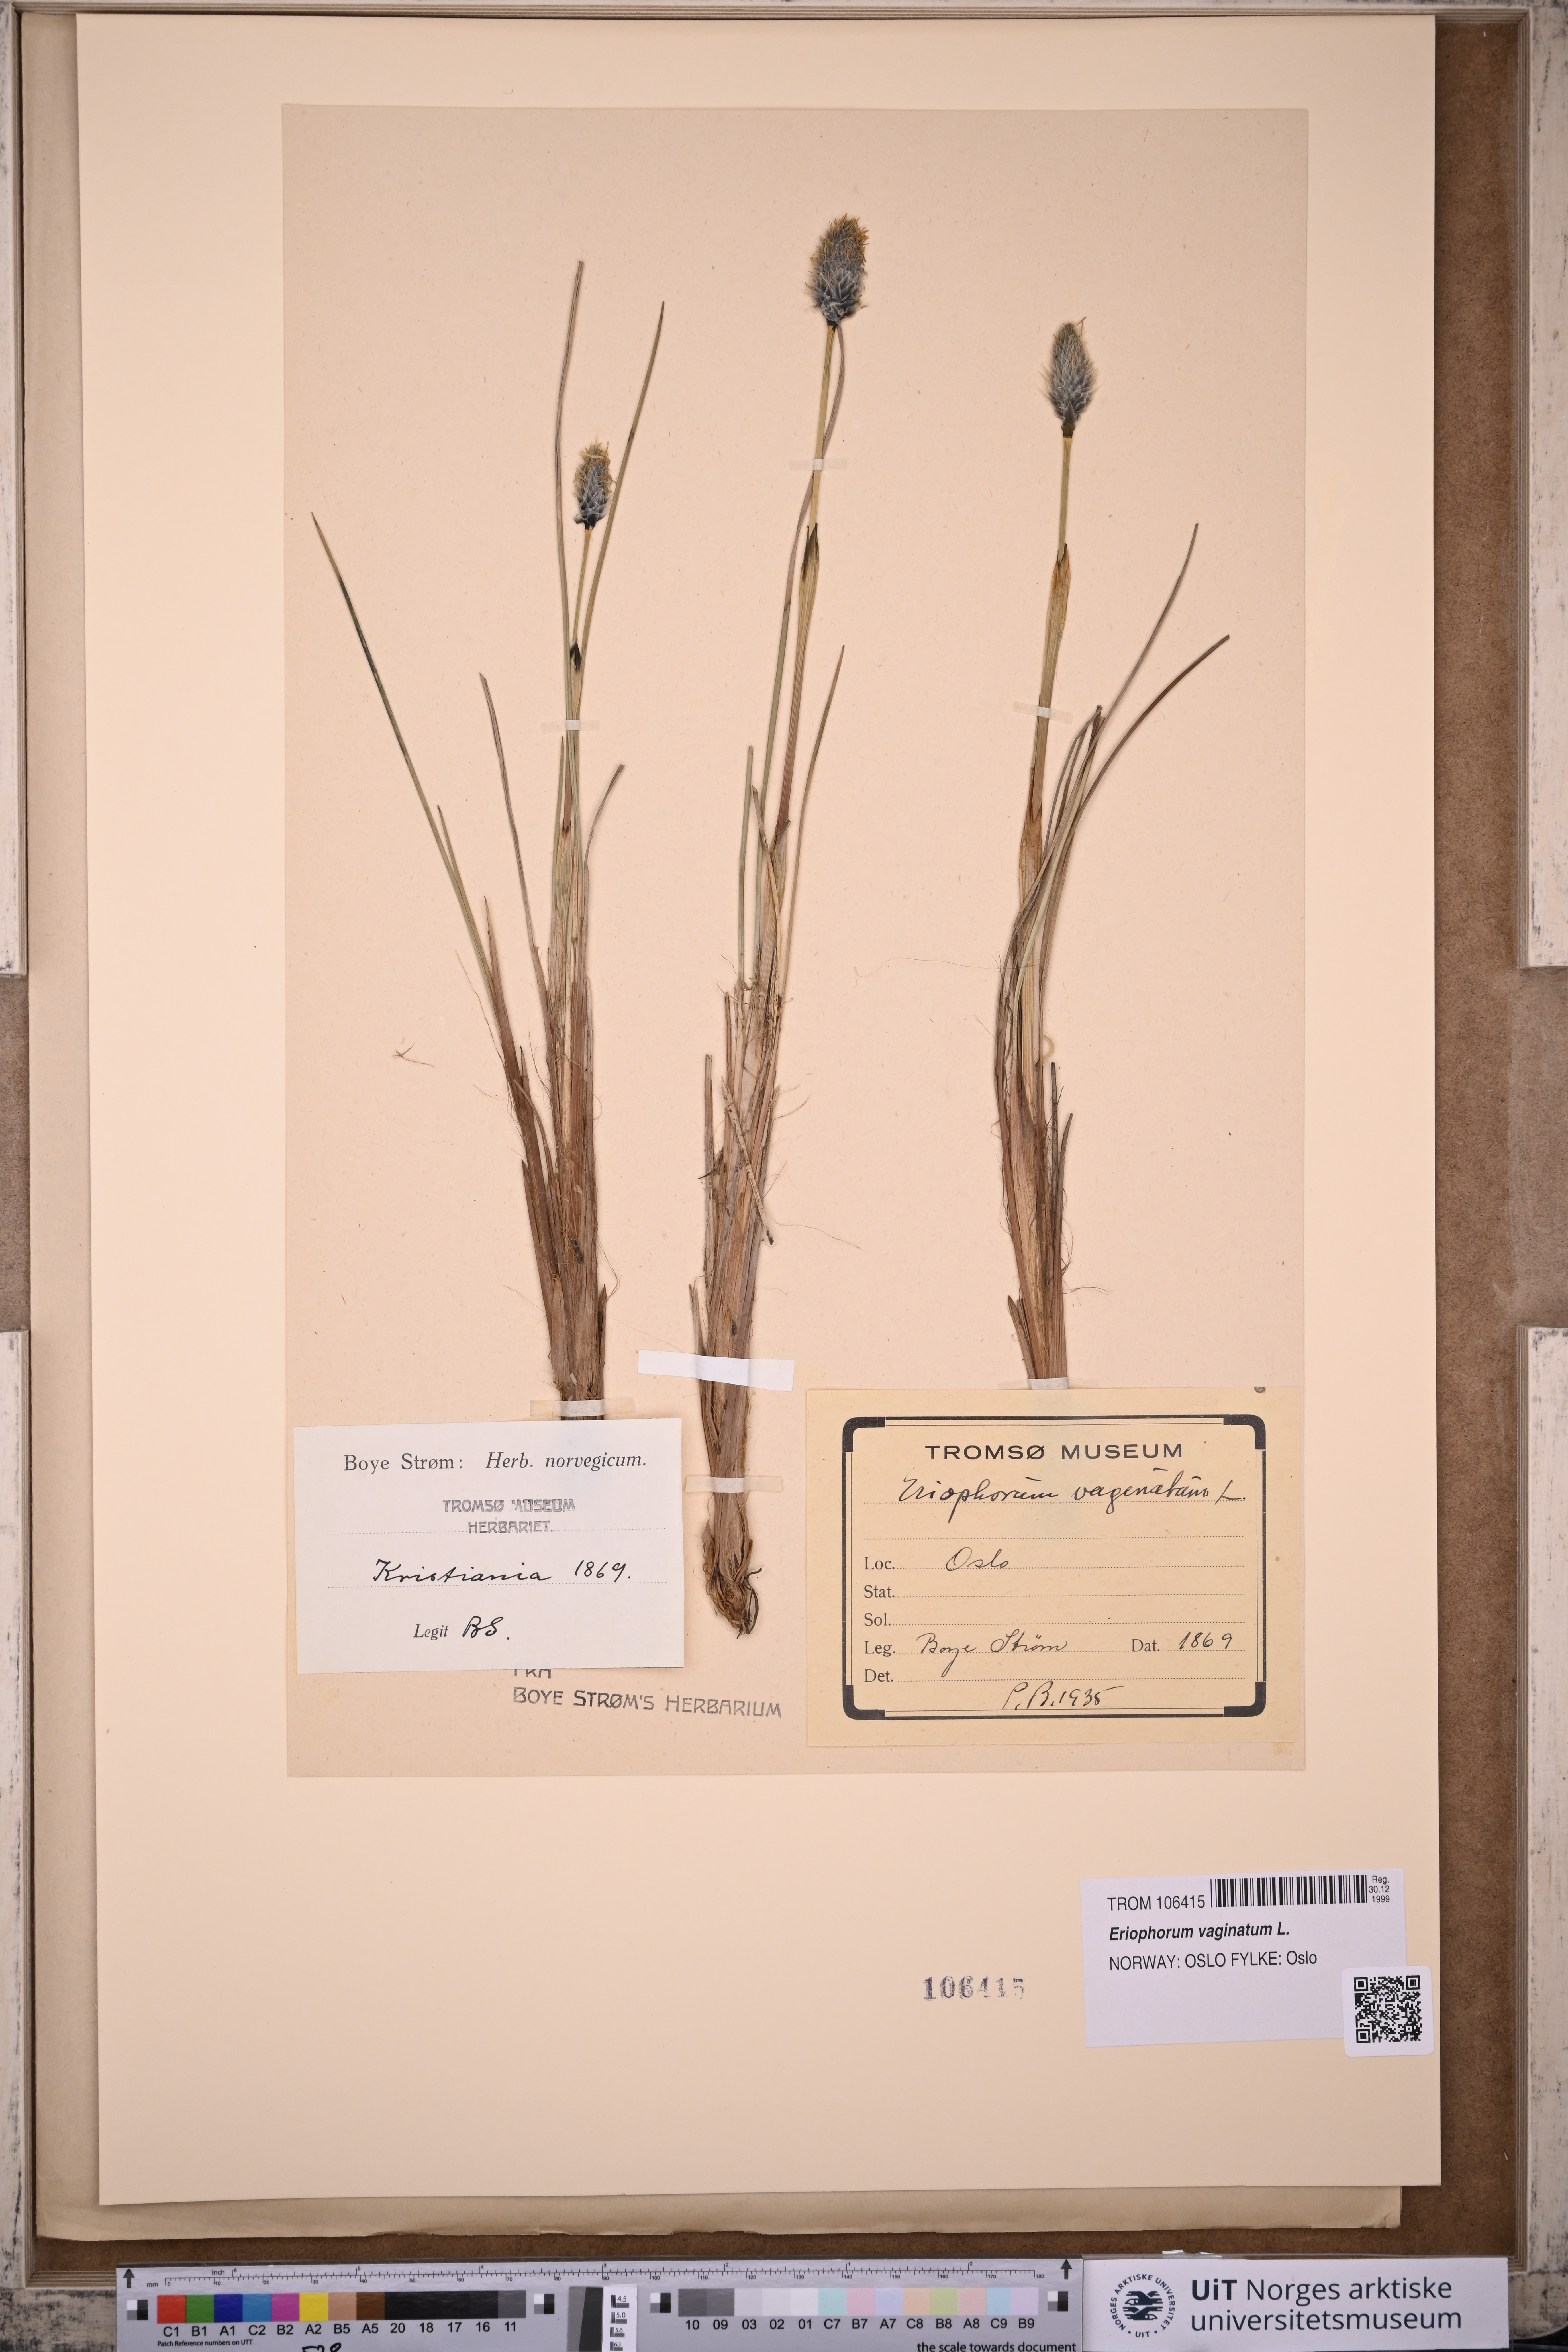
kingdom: Plantae
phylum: Tracheophyta
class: Liliopsida
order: Poales
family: Cyperaceae
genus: Eriophorum
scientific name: Eriophorum vaginatum
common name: Hare's-tail cottongrass
